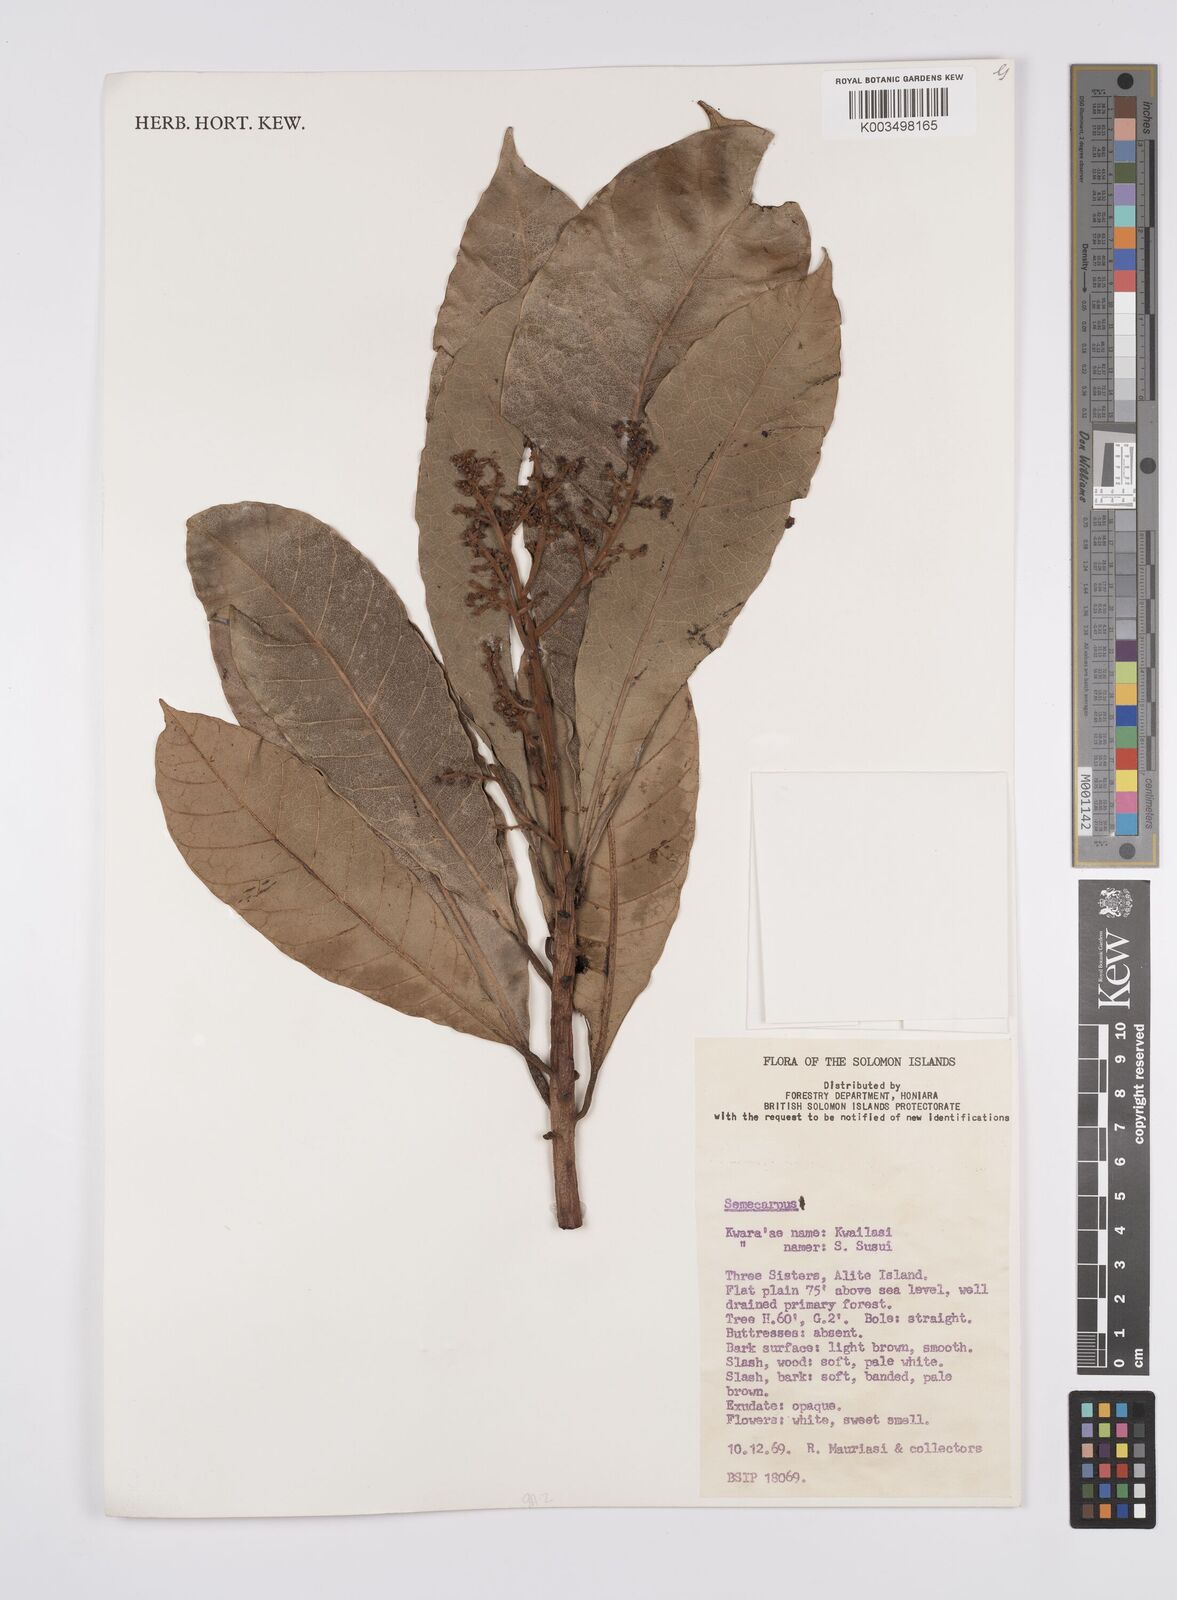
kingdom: Plantae
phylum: Tracheophyta
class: Magnoliopsida
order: Sapindales
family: Anacardiaceae
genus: Semecarpus
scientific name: Semecarpus
